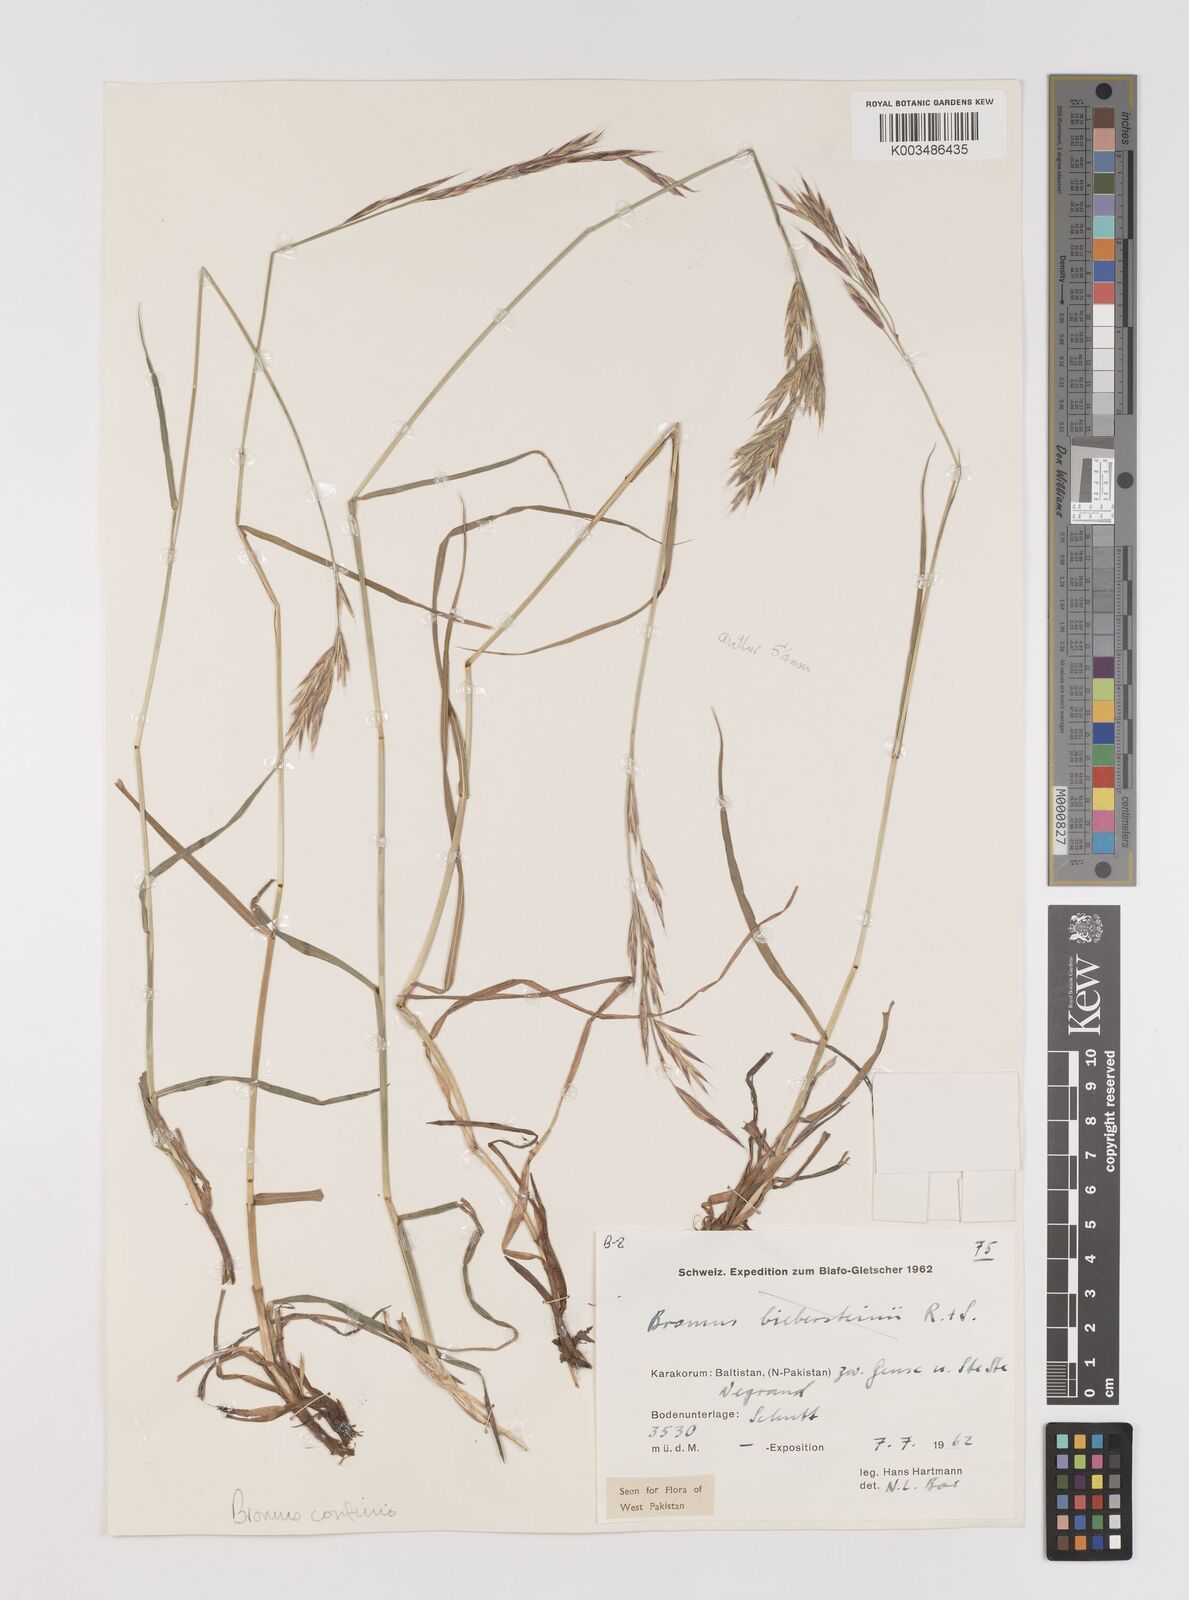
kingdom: Plantae
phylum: Tracheophyta
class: Liliopsida
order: Poales
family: Poaceae
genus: Bromus
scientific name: Bromus confinis
